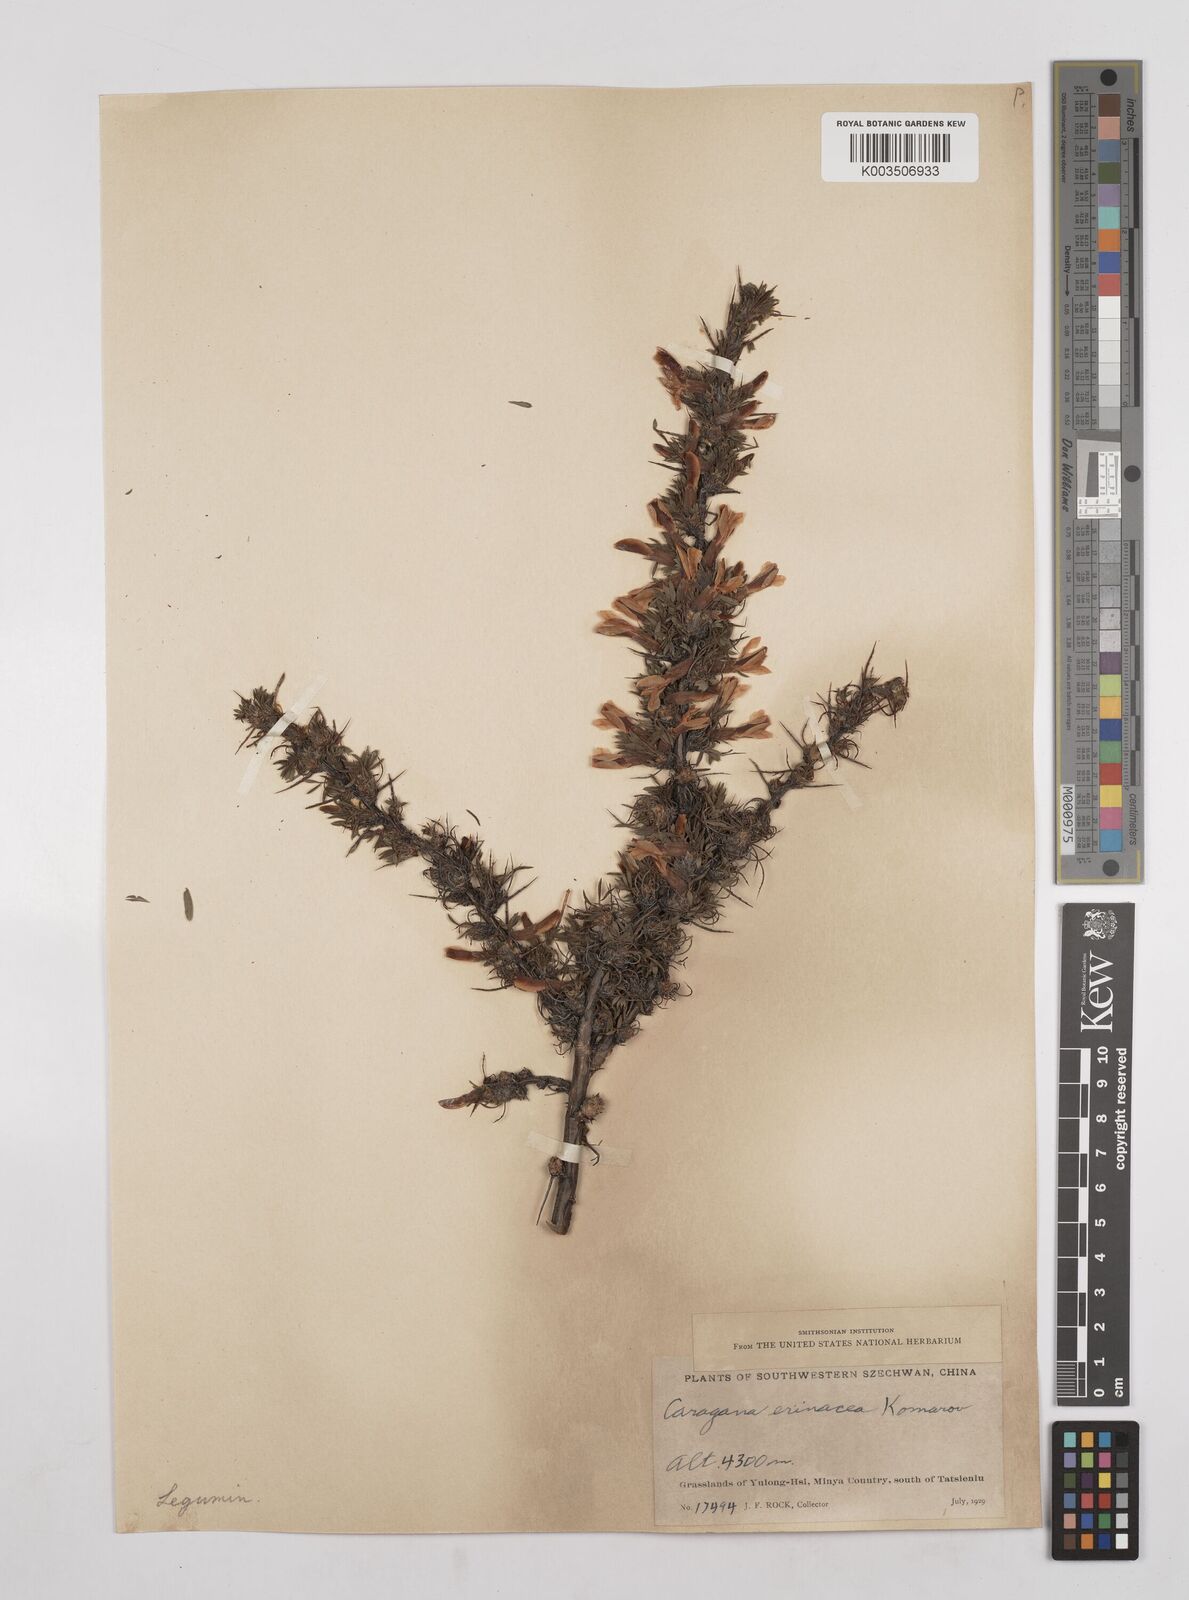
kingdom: Plantae
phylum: Tracheophyta
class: Magnoliopsida
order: Fabales
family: Fabaceae
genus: Caragana
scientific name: Caragana erinacea
